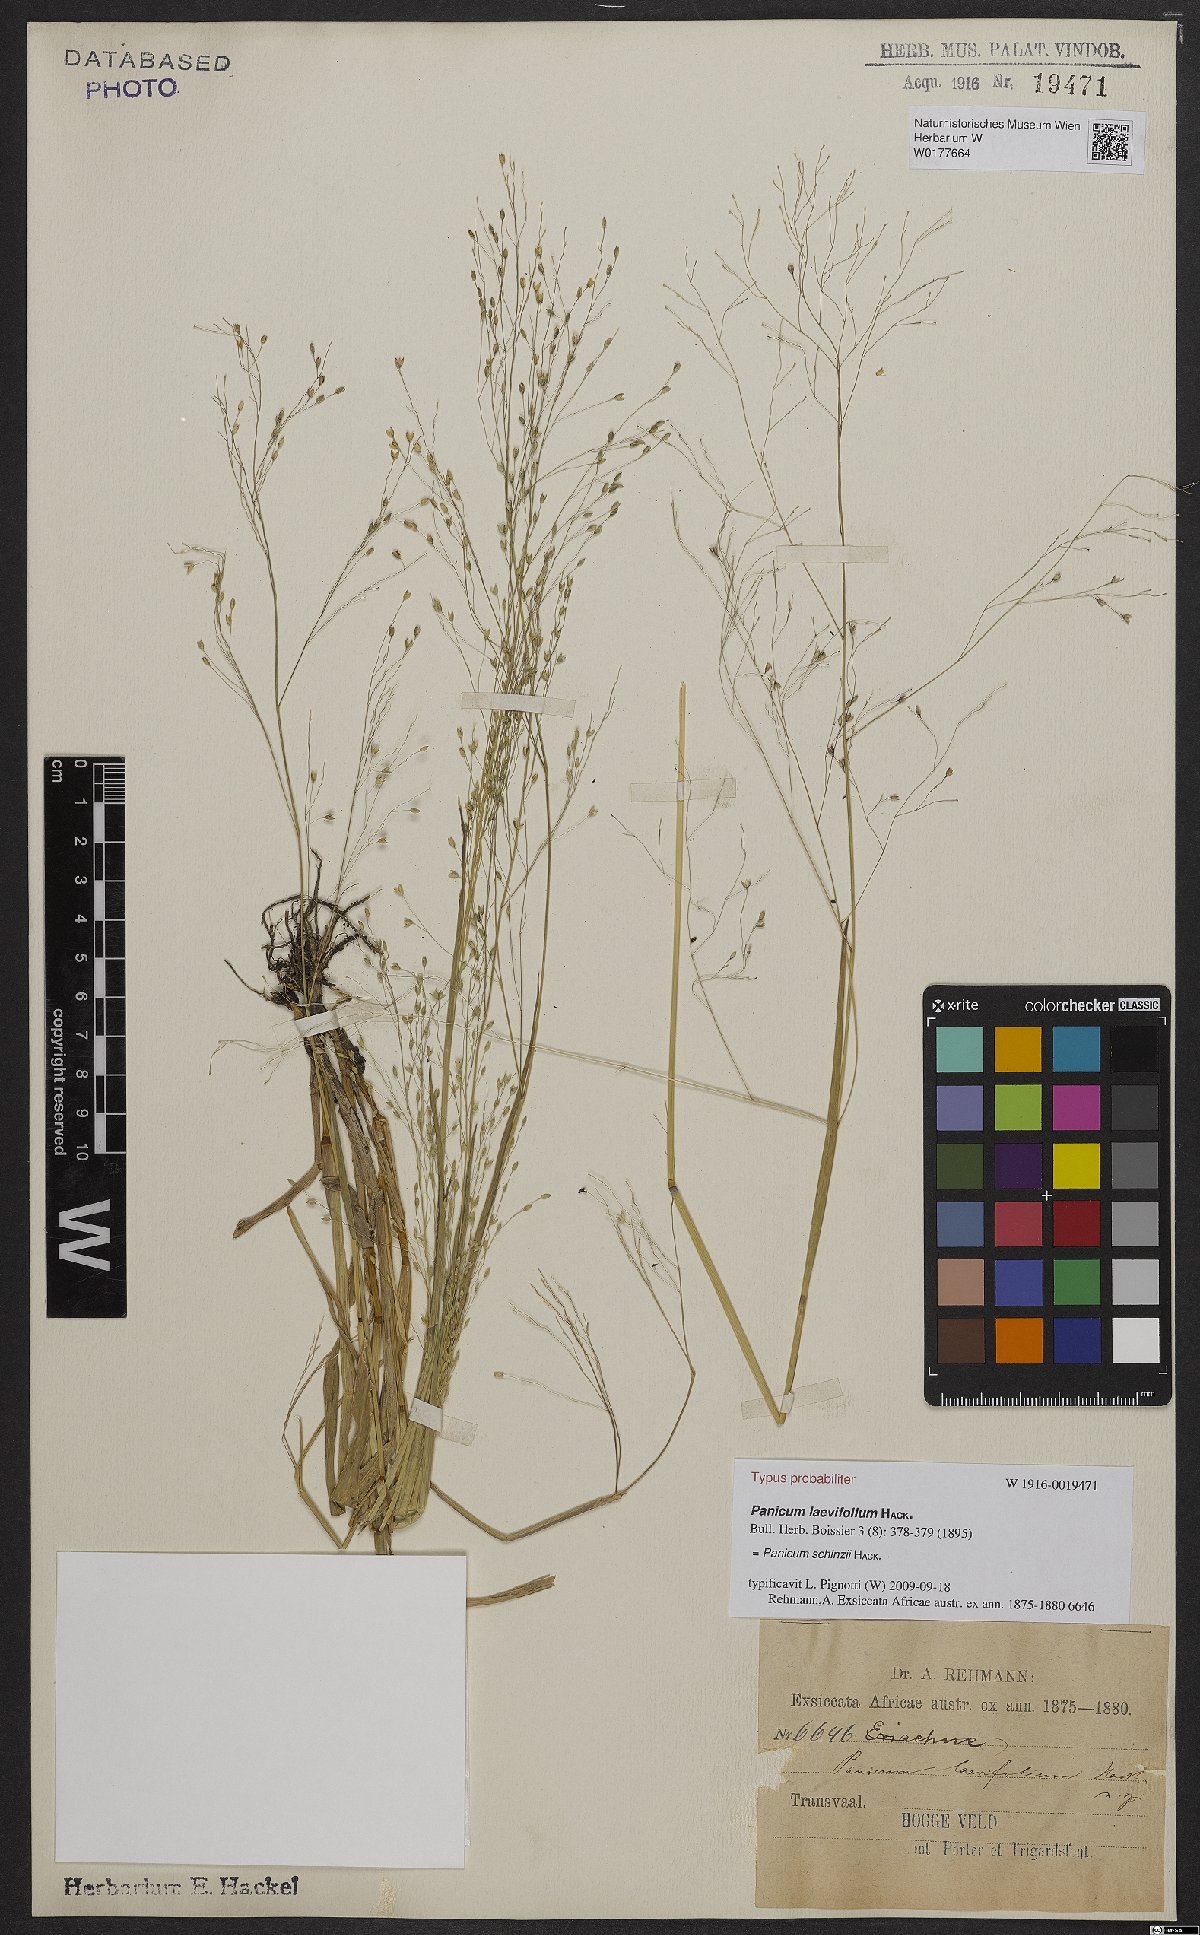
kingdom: Plantae
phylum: Tracheophyta
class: Liliopsida
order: Poales
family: Poaceae
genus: Panicum
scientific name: Panicum schinzii
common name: Sweet grass
